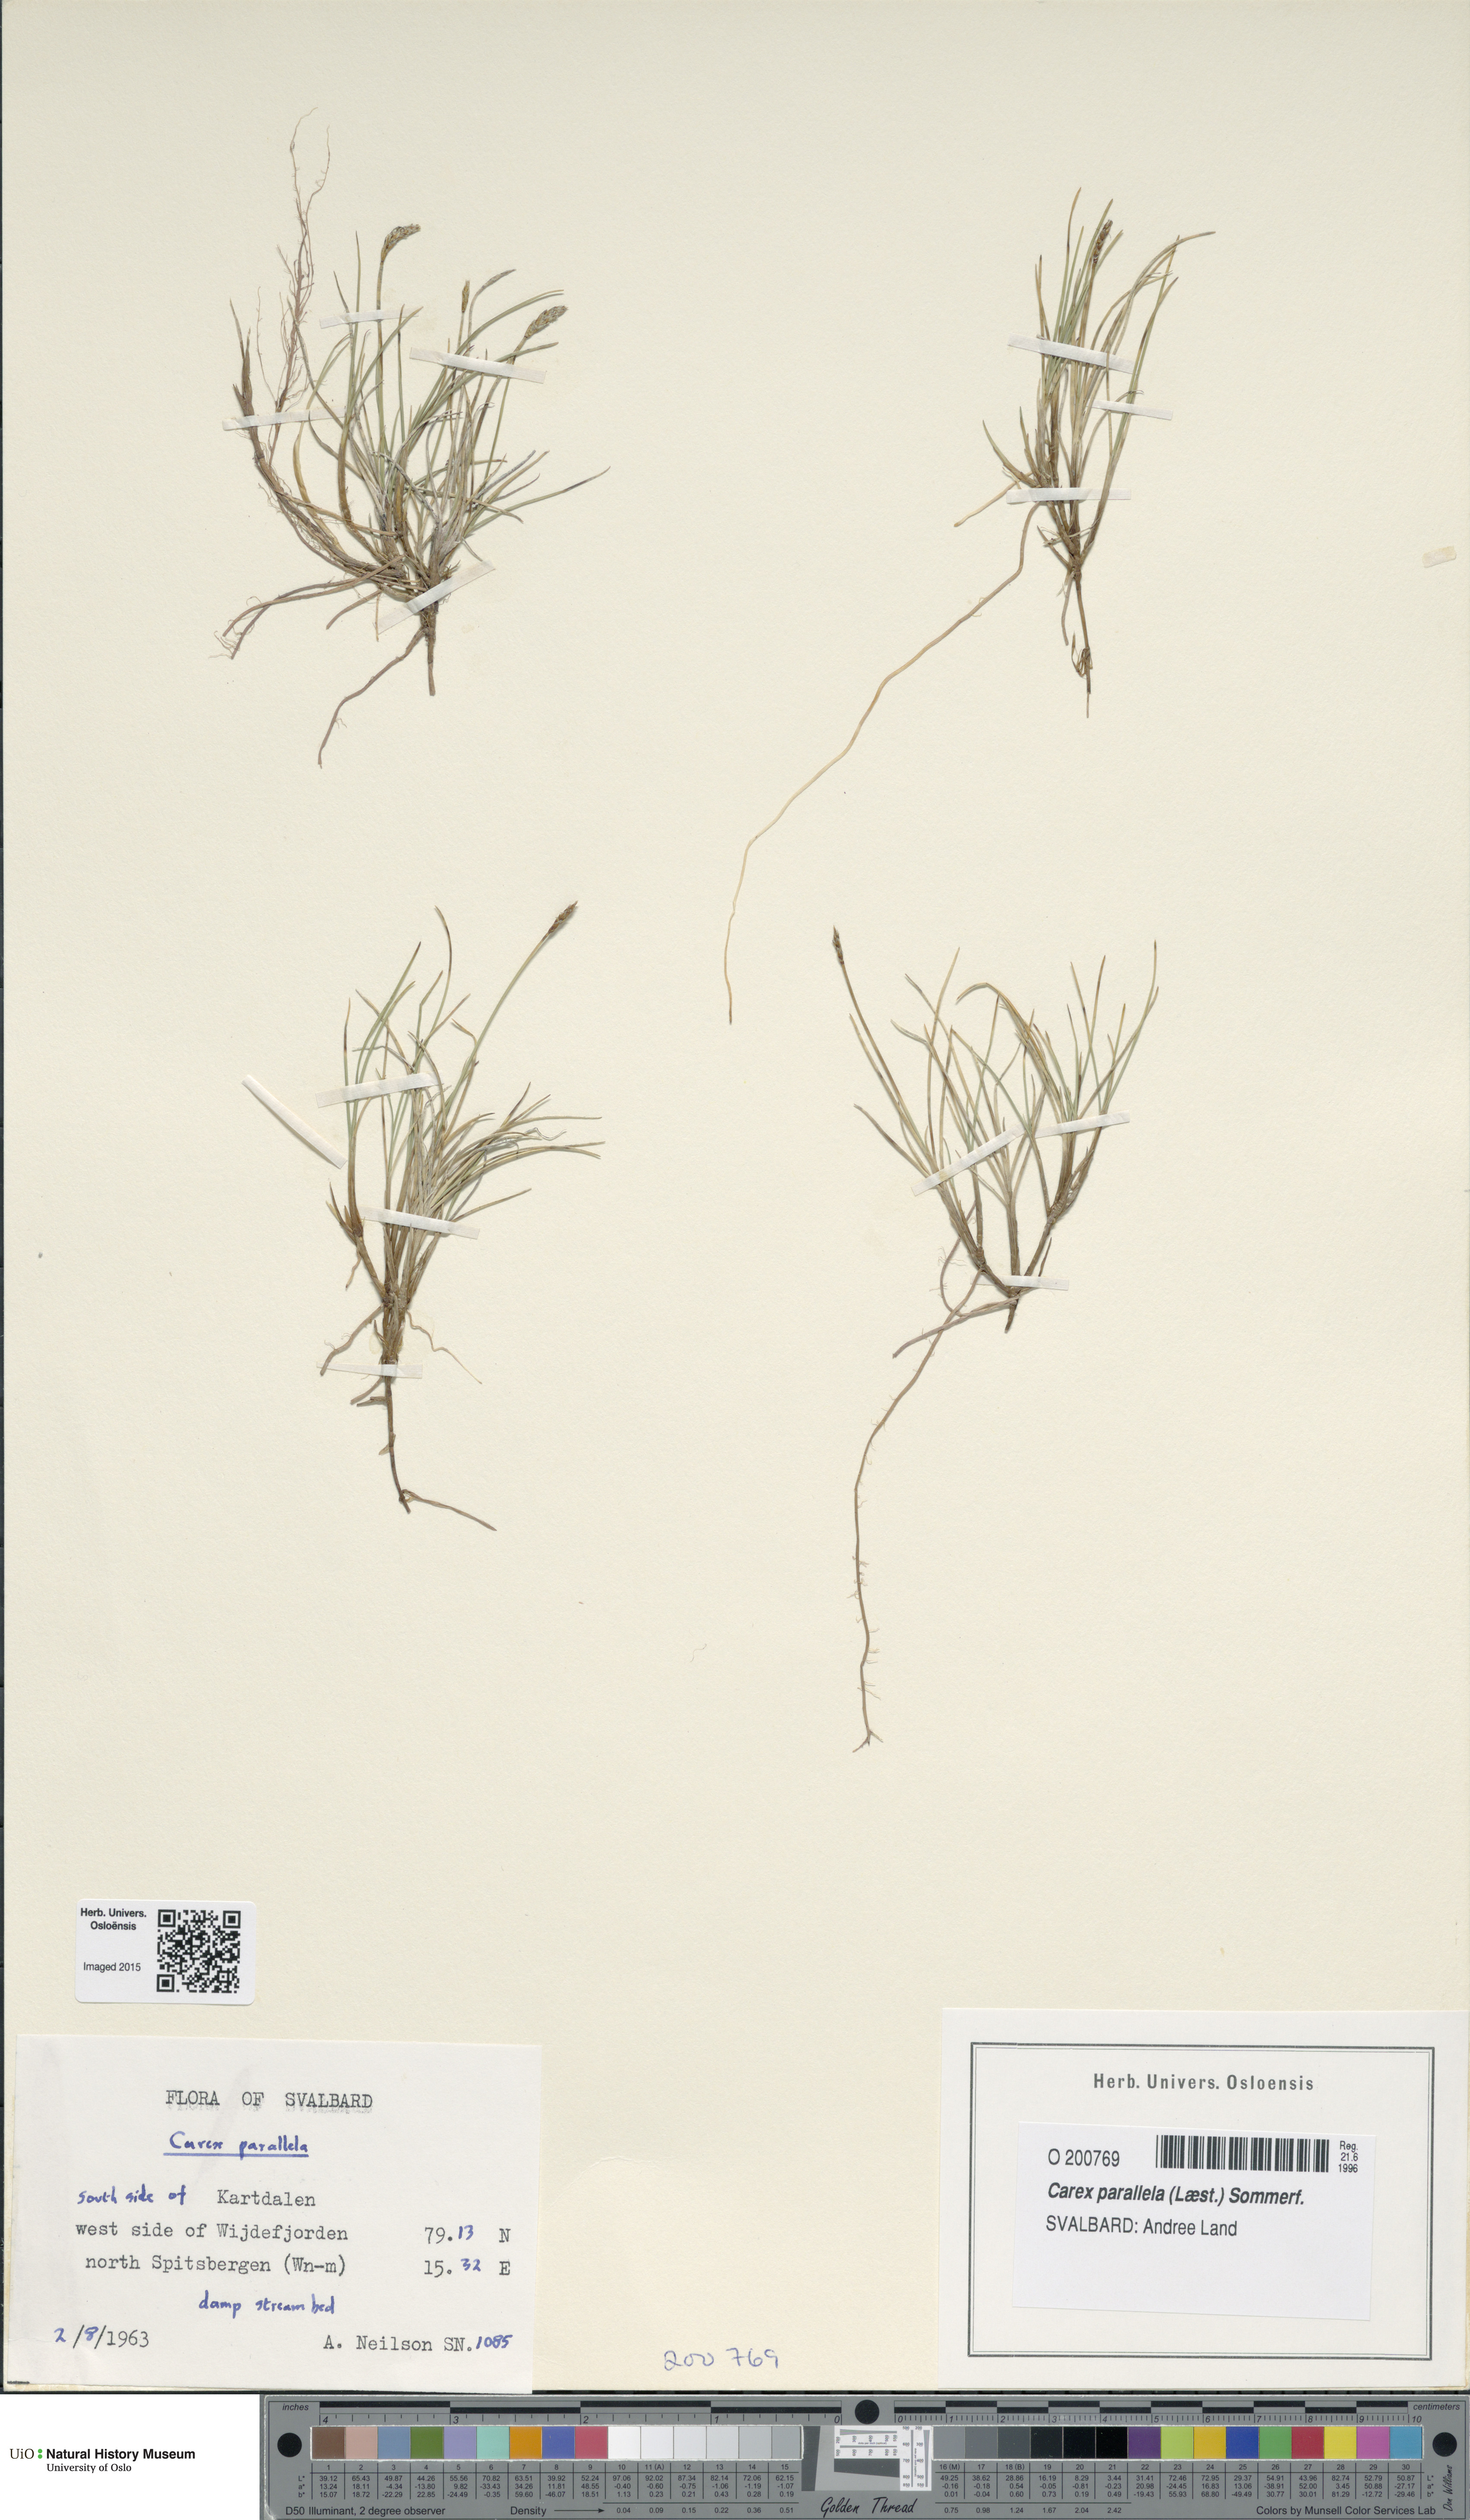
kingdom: Plantae
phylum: Tracheophyta
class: Liliopsida
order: Poales
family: Cyperaceae
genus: Carex
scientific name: Carex parallela
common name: Parallel sedge
